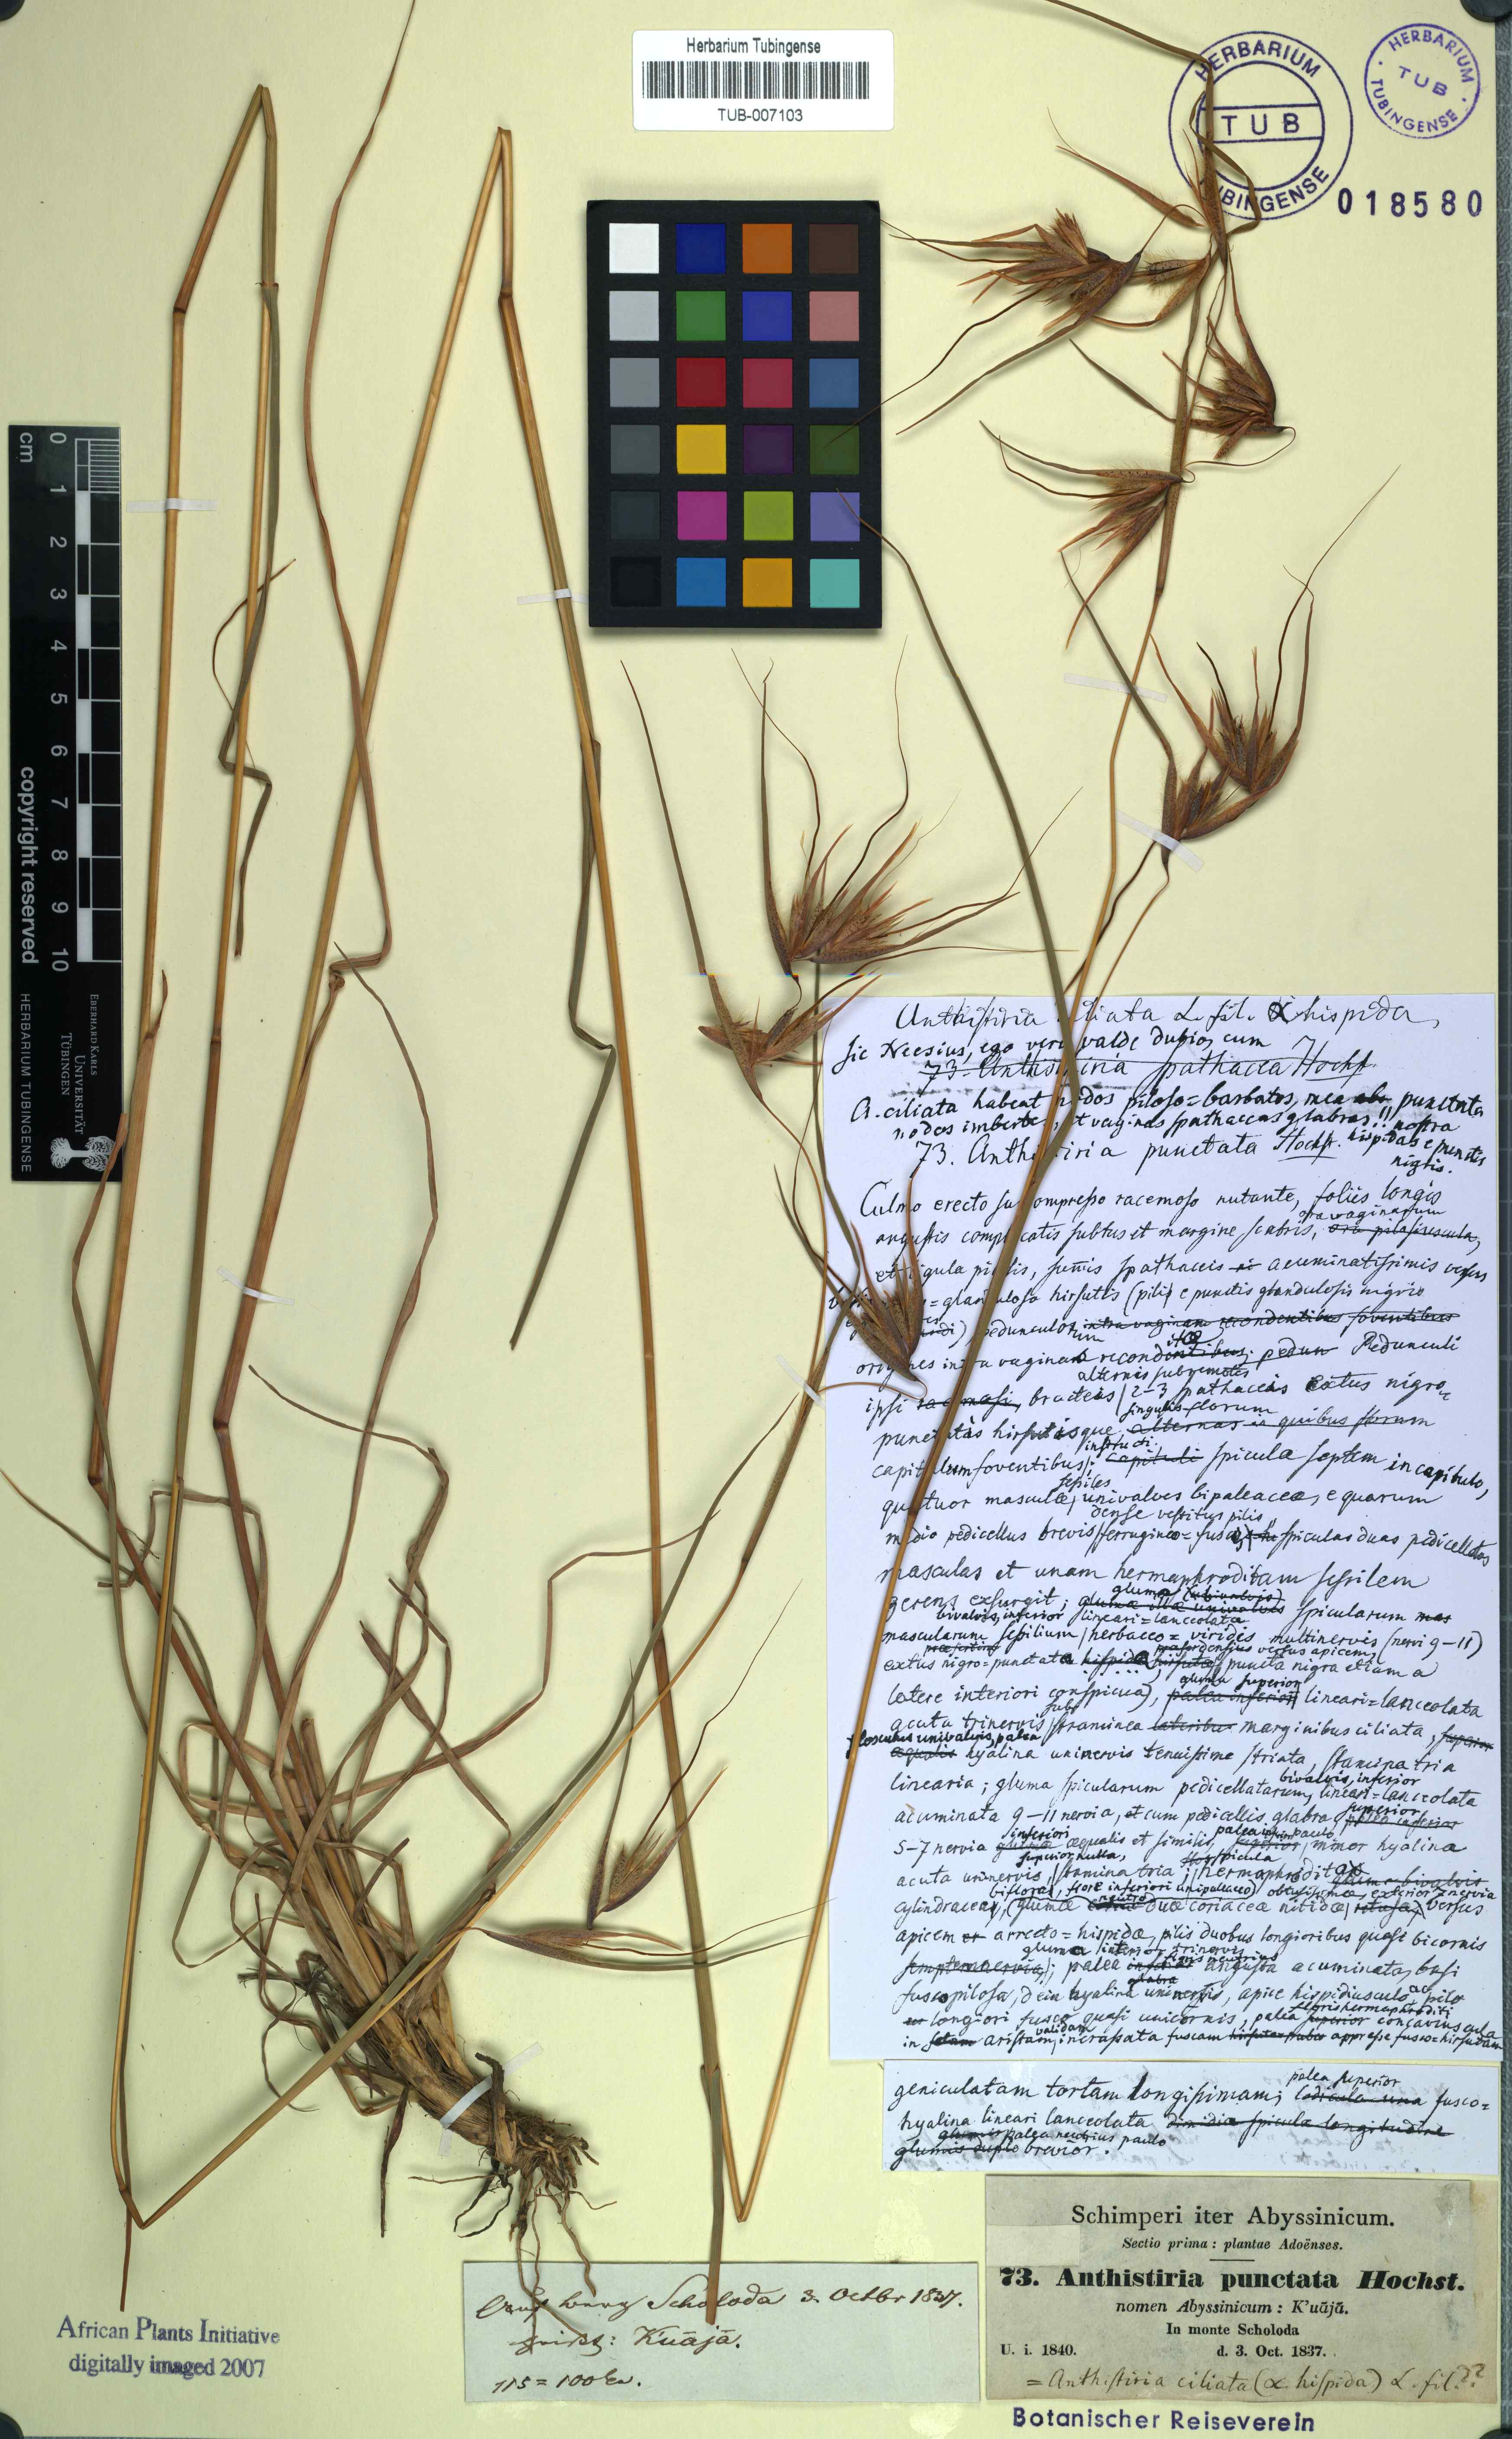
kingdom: Plantae
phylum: Tracheophyta
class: Liliopsida
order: Poales
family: Poaceae
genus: Themeda
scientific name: Themeda triandra
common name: Kangaroo grass
